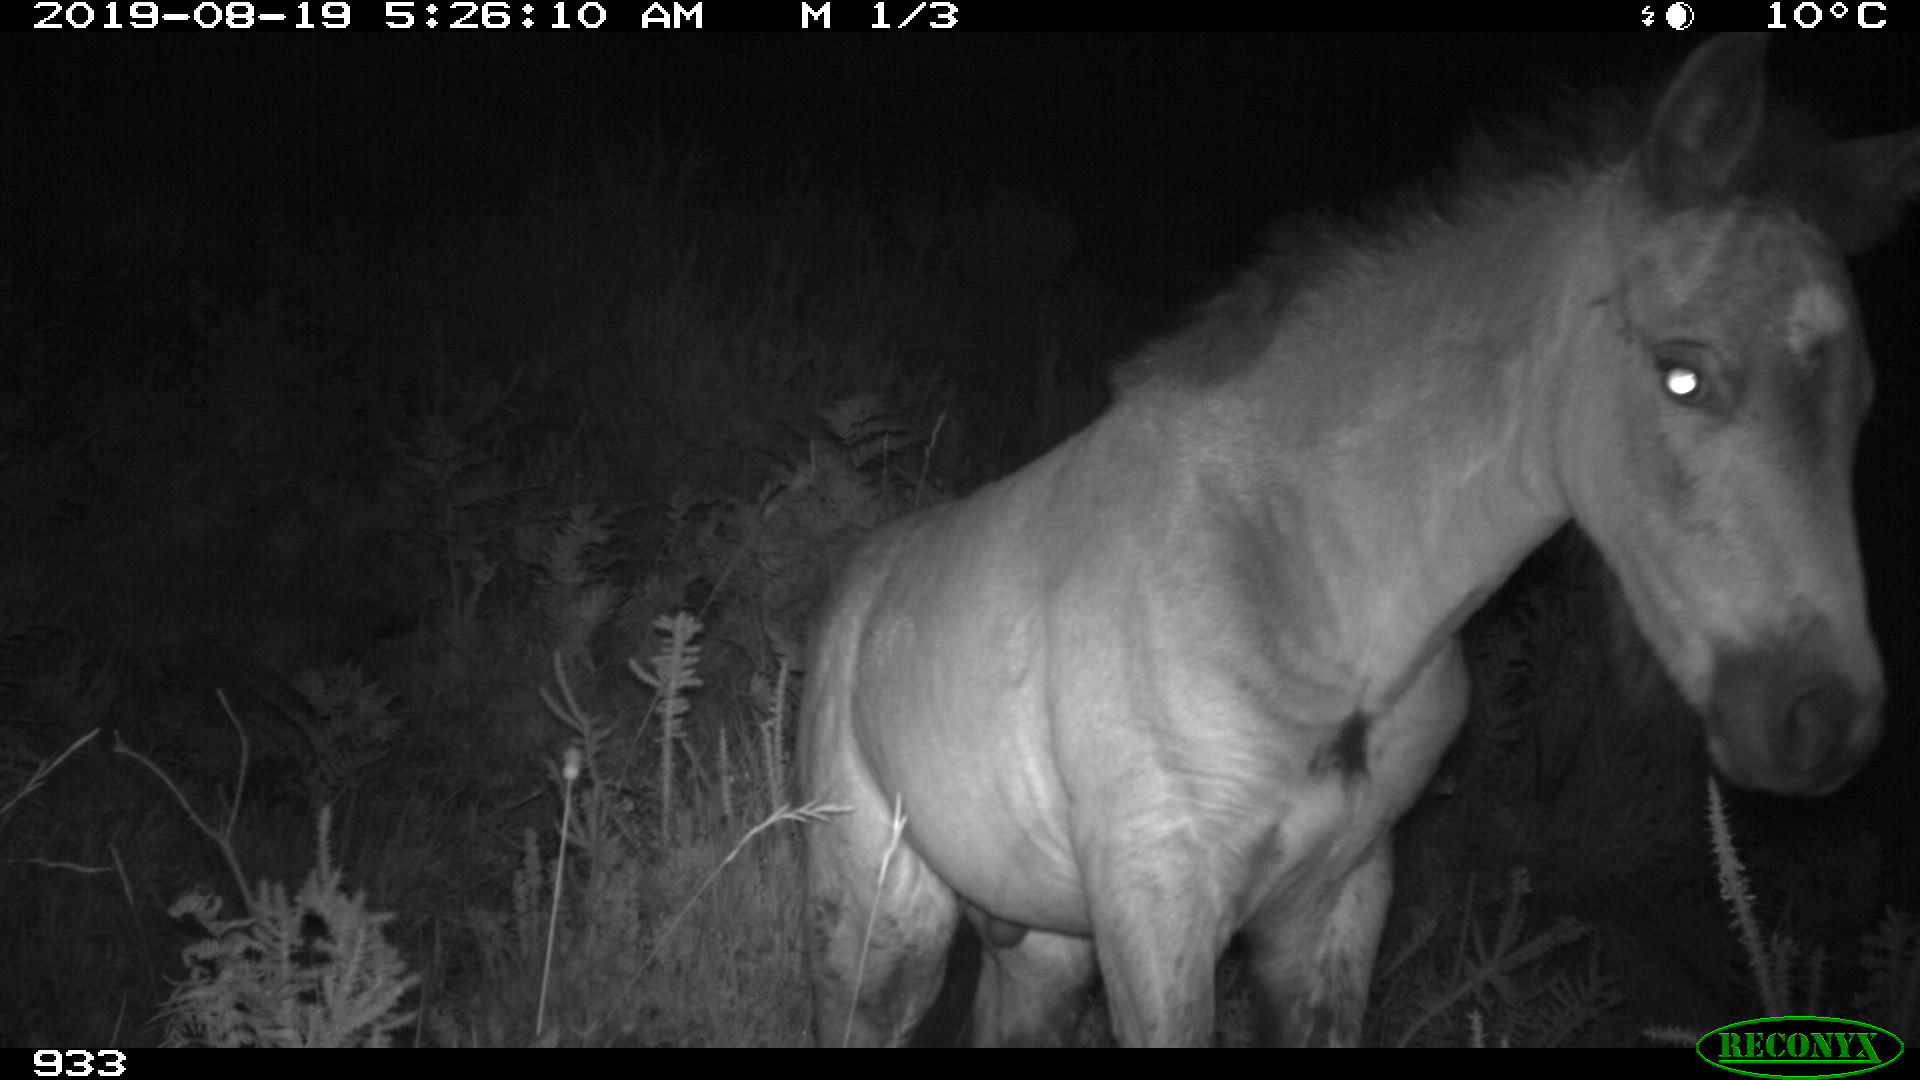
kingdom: Animalia
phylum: Chordata
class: Mammalia
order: Perissodactyla
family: Equidae
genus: Equus
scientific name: Equus caballus
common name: Horse
